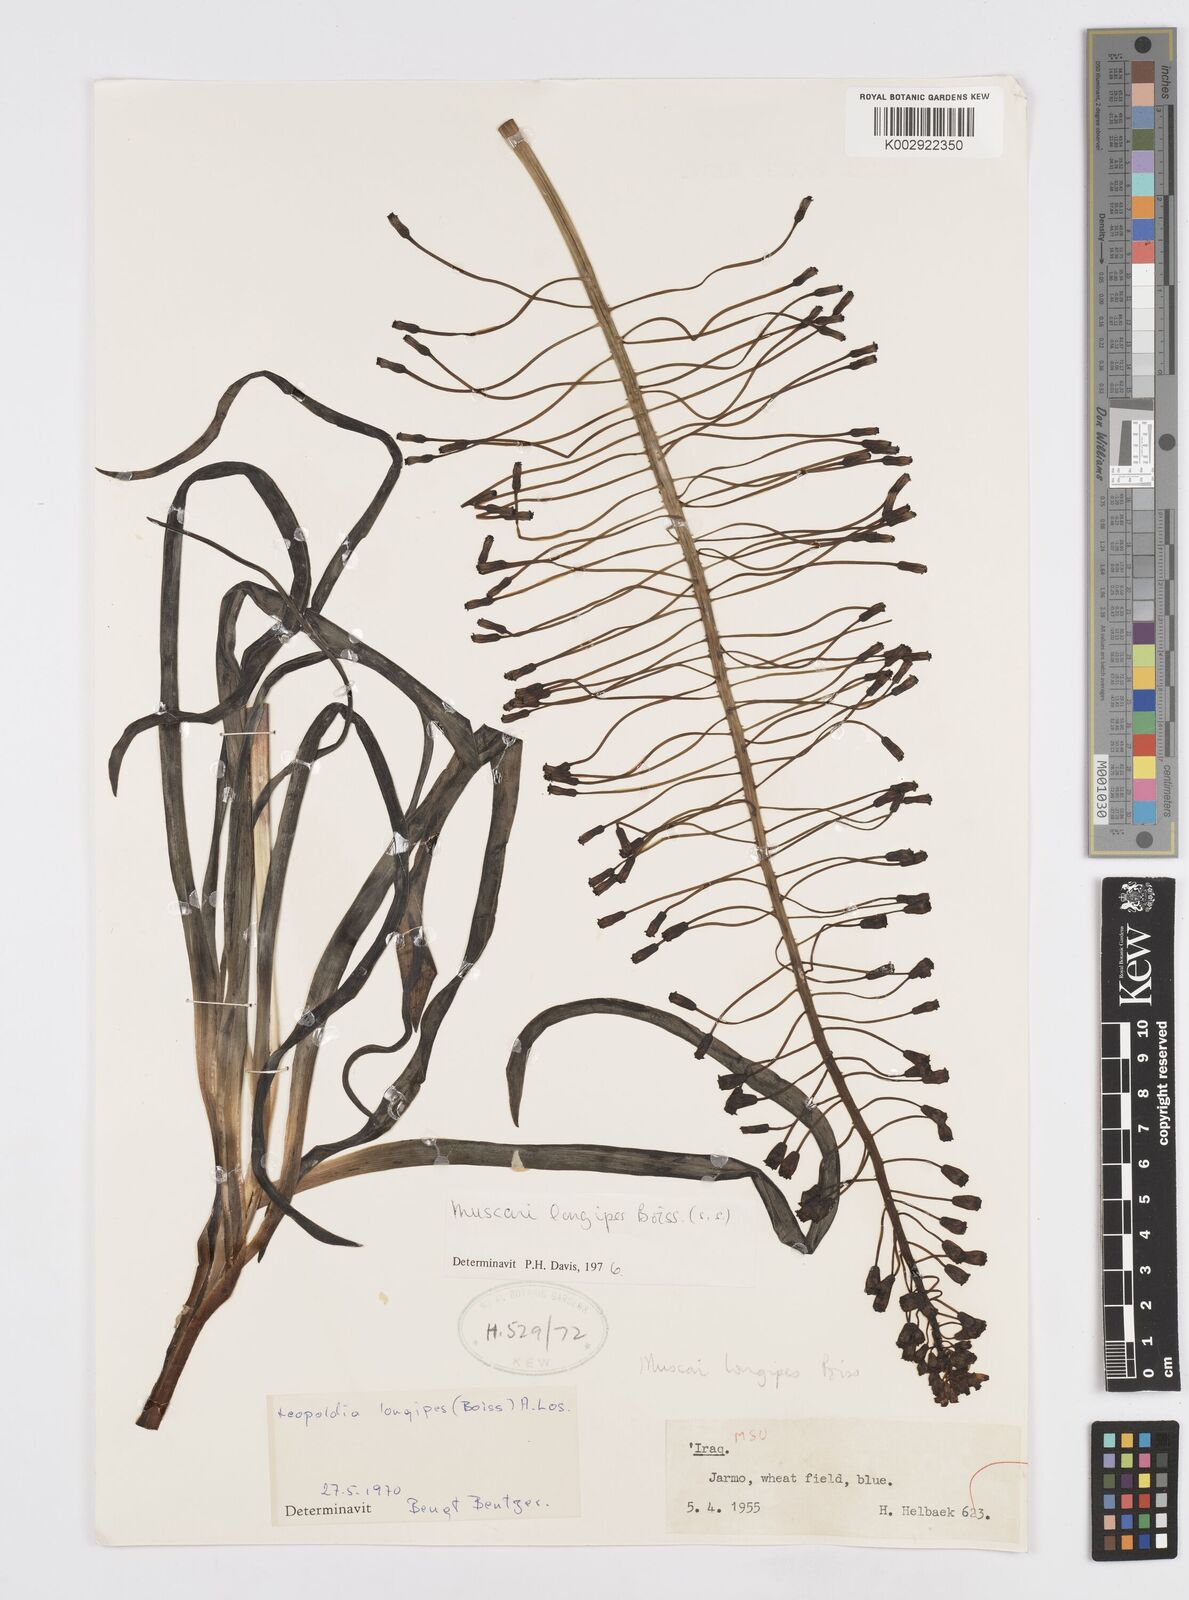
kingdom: Plantae
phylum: Tracheophyta
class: Liliopsida
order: Asparagales
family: Asparagaceae
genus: Muscari
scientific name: Muscari longipes
